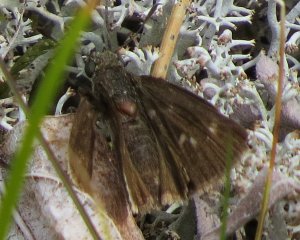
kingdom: Animalia
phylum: Arthropoda
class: Insecta
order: Lepidoptera
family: Hesperiidae
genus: Euphyes
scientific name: Euphyes vestris
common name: Dun Skipper
